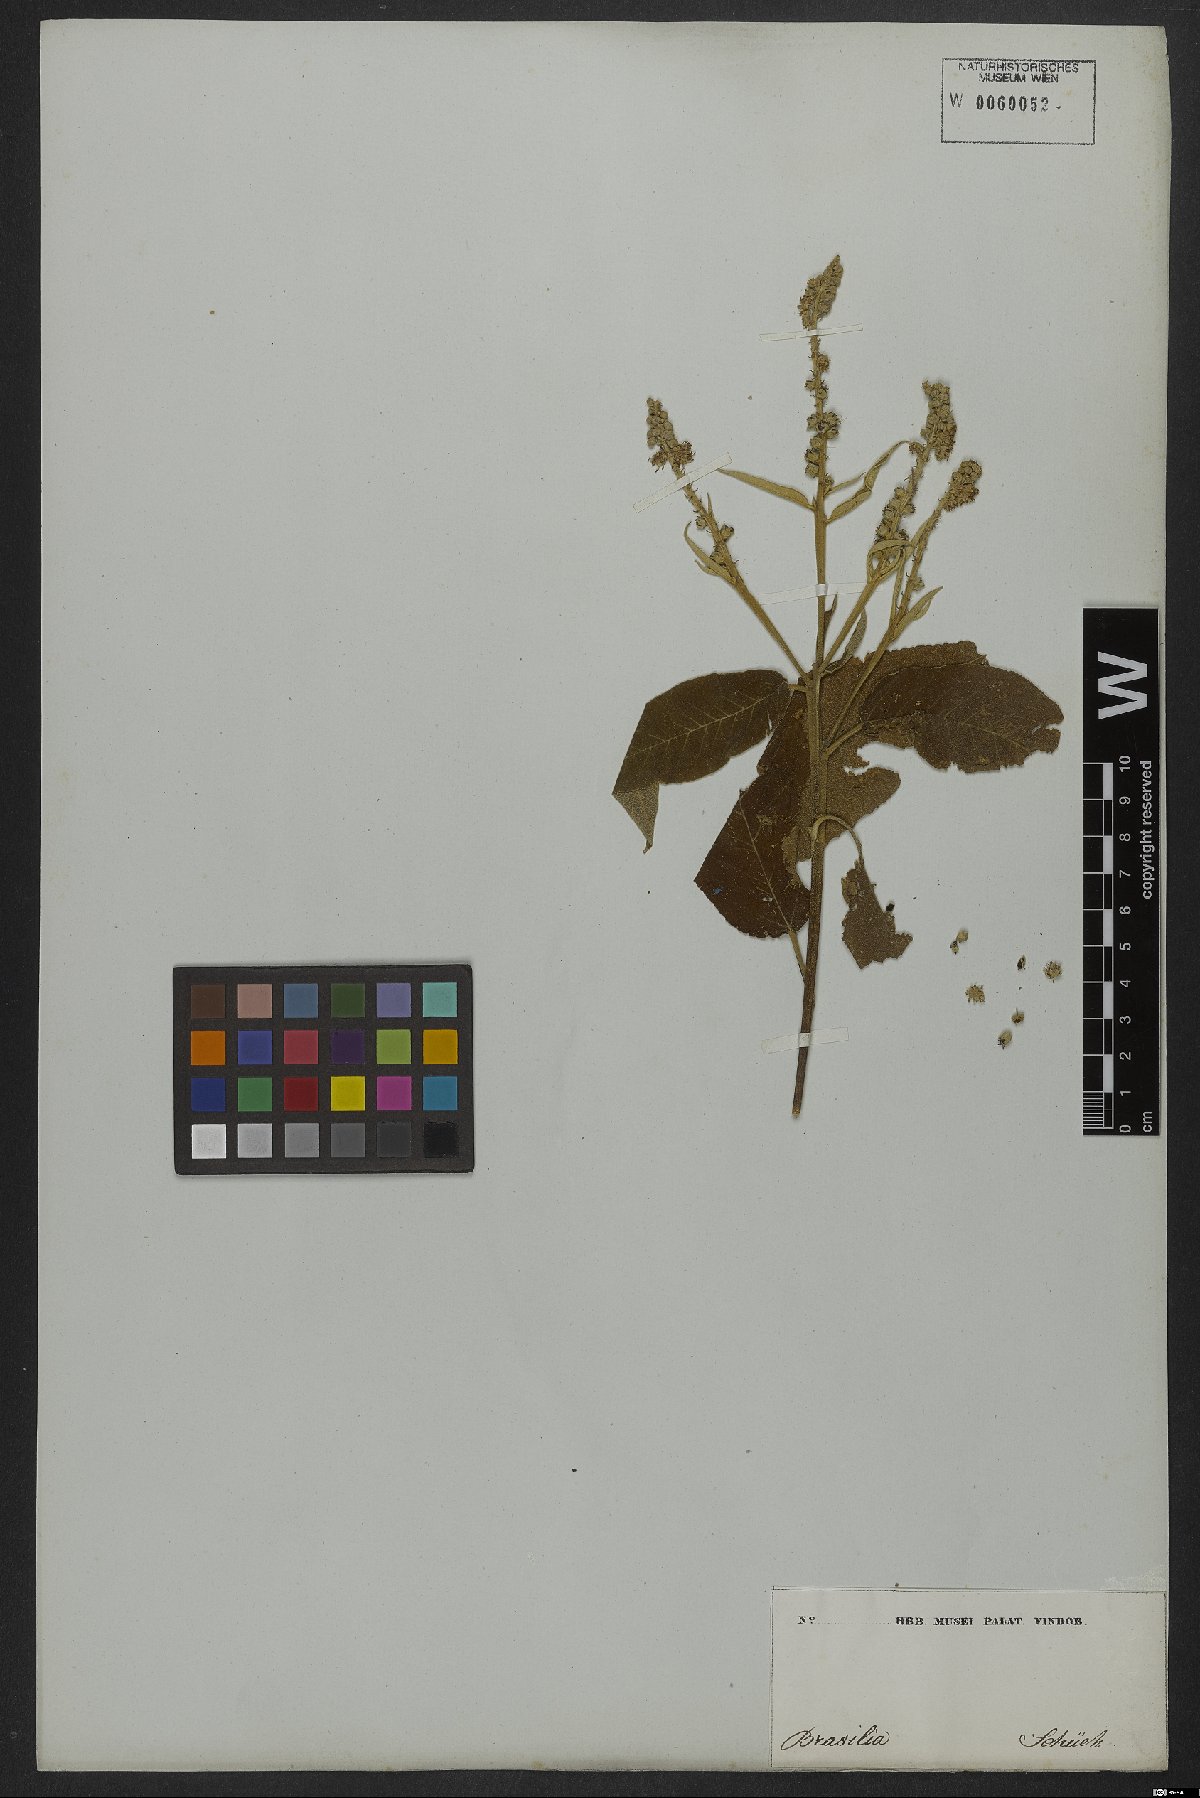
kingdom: Plantae
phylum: Tracheophyta
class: Magnoliopsida
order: Malpighiales
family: Euphorbiaceae
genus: Croton
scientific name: Croton compressus
